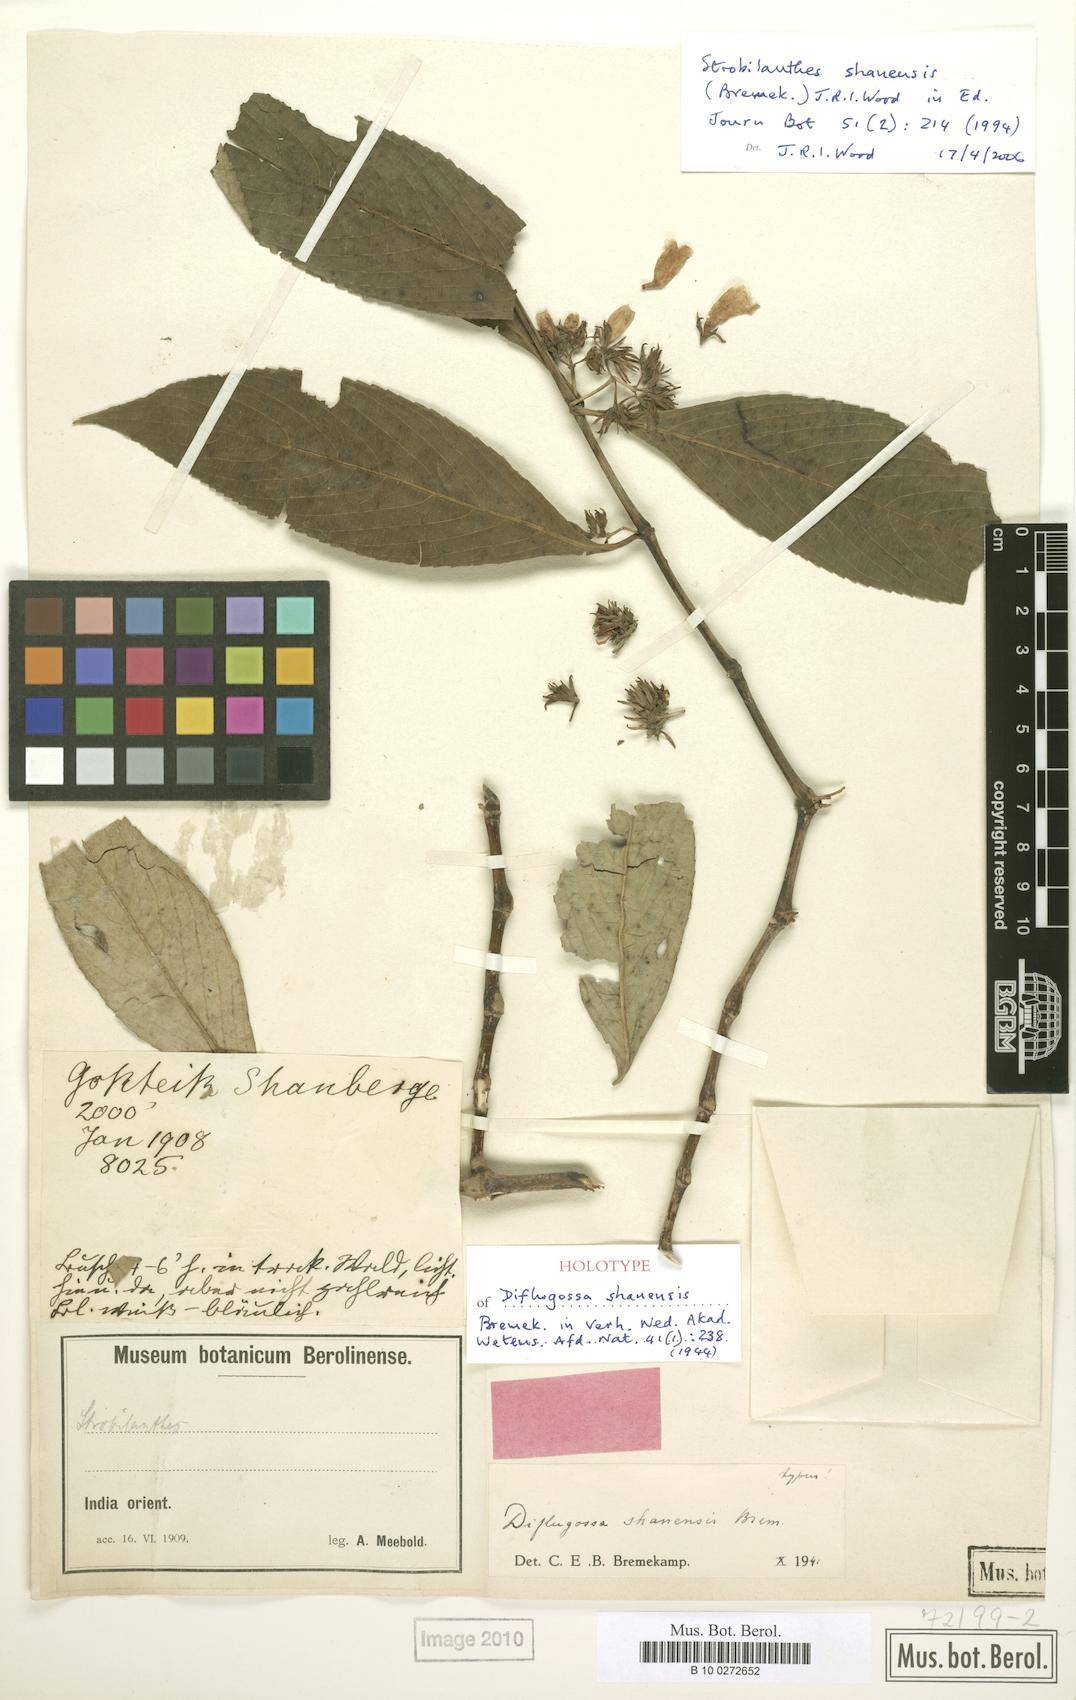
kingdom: Plantae
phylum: Tracheophyta
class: Magnoliopsida
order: Lamiales
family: Acanthaceae
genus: Strobilanthes
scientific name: Strobilanthes shanensis
